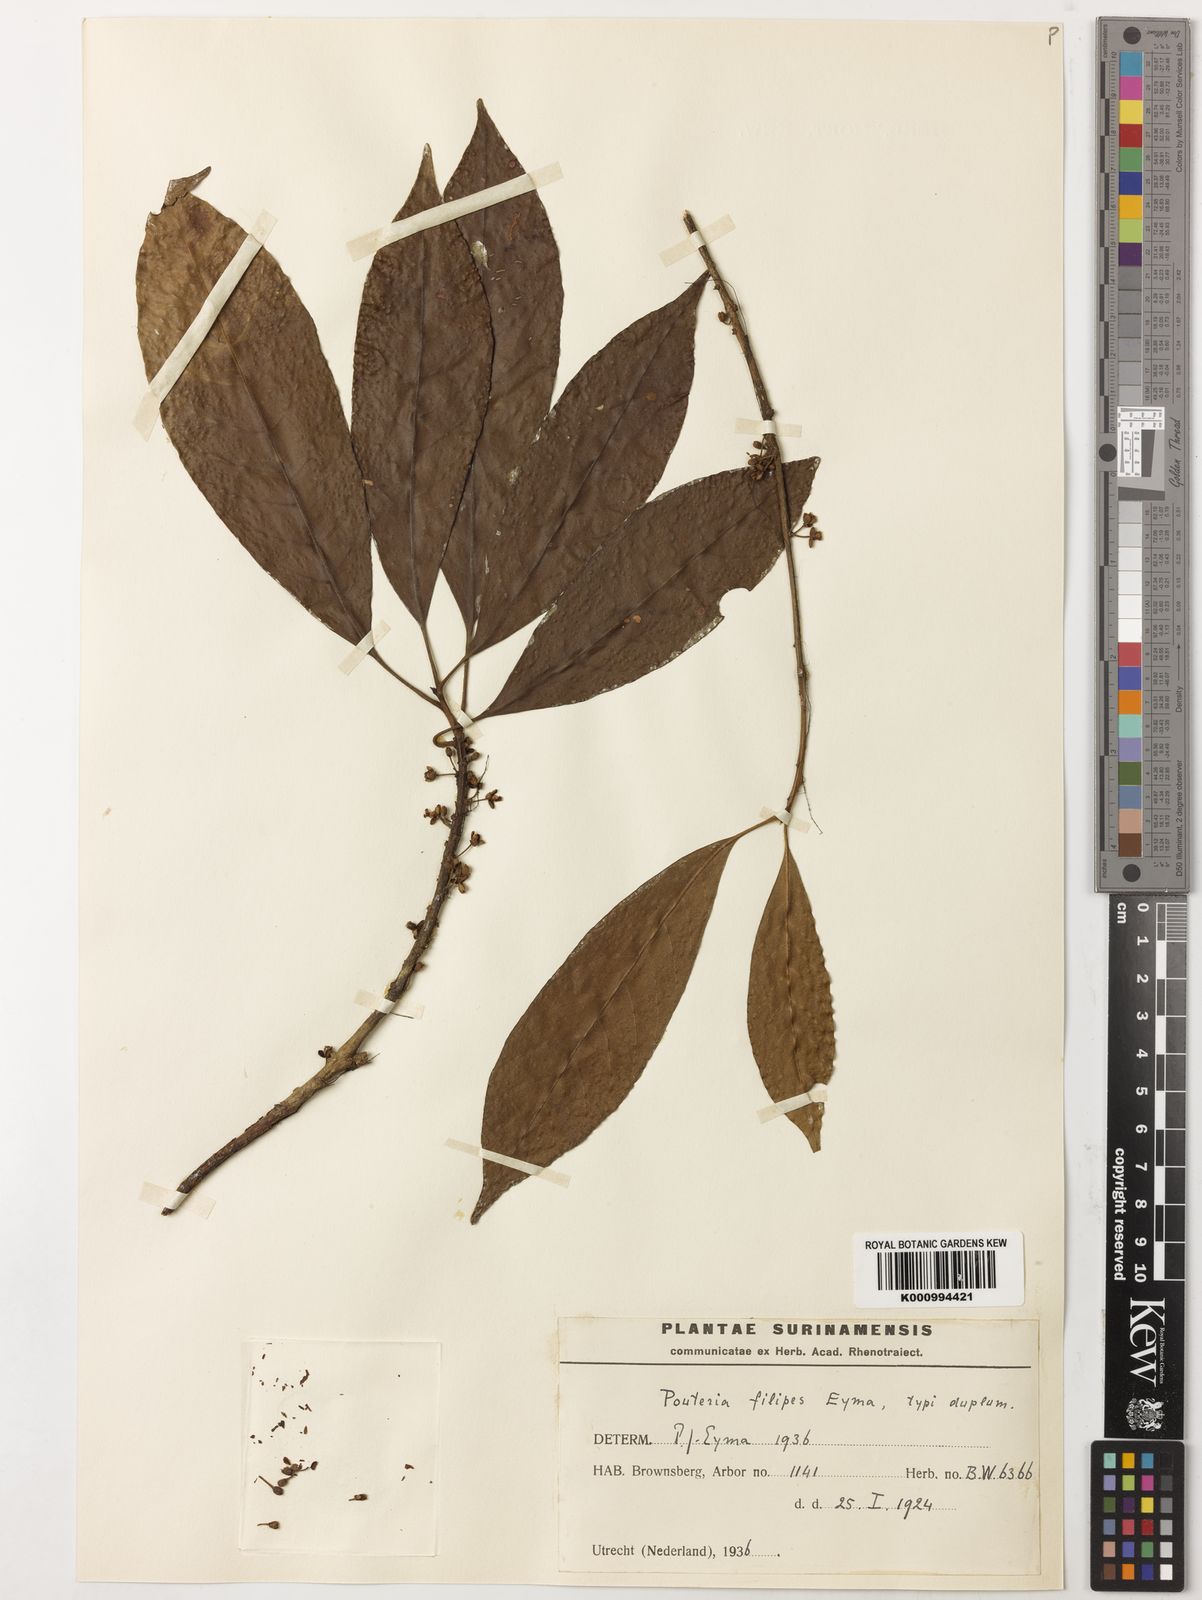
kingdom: Plantae
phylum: Tracheophyta
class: Magnoliopsida
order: Ericales
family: Sapotaceae
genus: Pouteria
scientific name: Pouteria filipes
